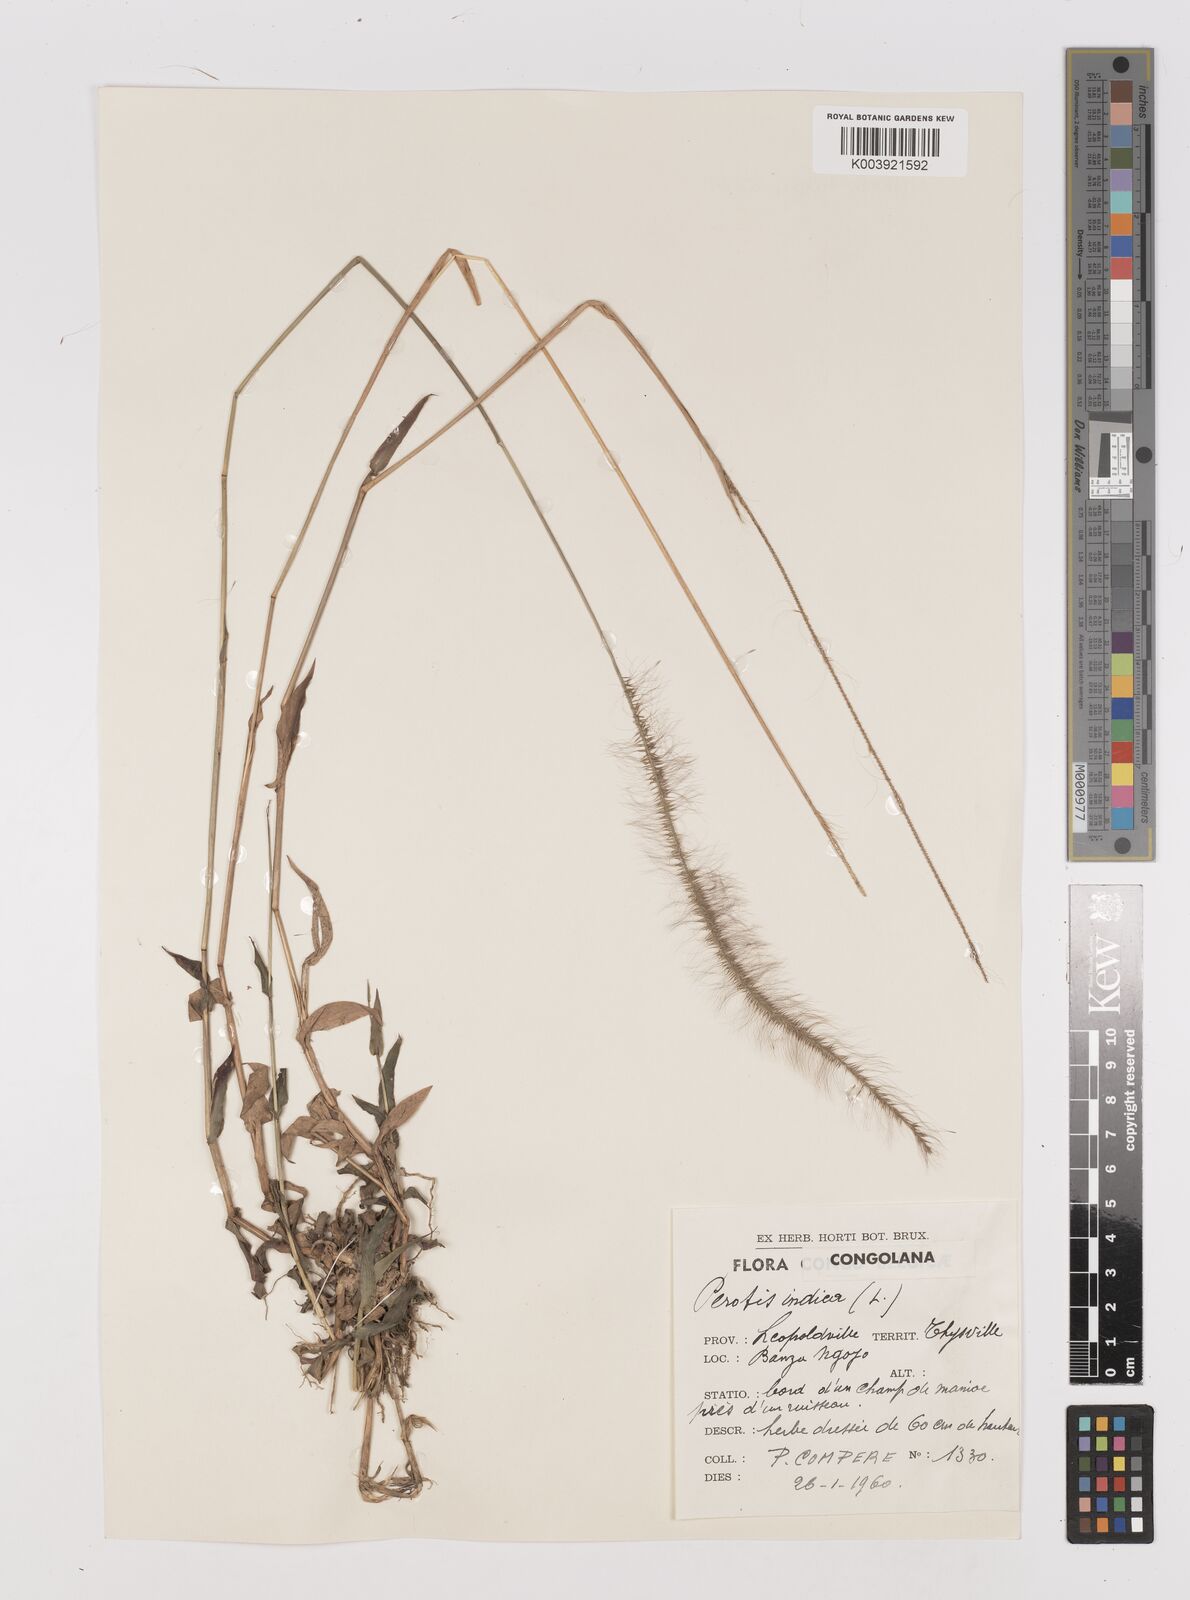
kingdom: Plantae
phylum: Tracheophyta
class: Liliopsida
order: Poales
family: Poaceae
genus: Perotis
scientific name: Perotis patens
